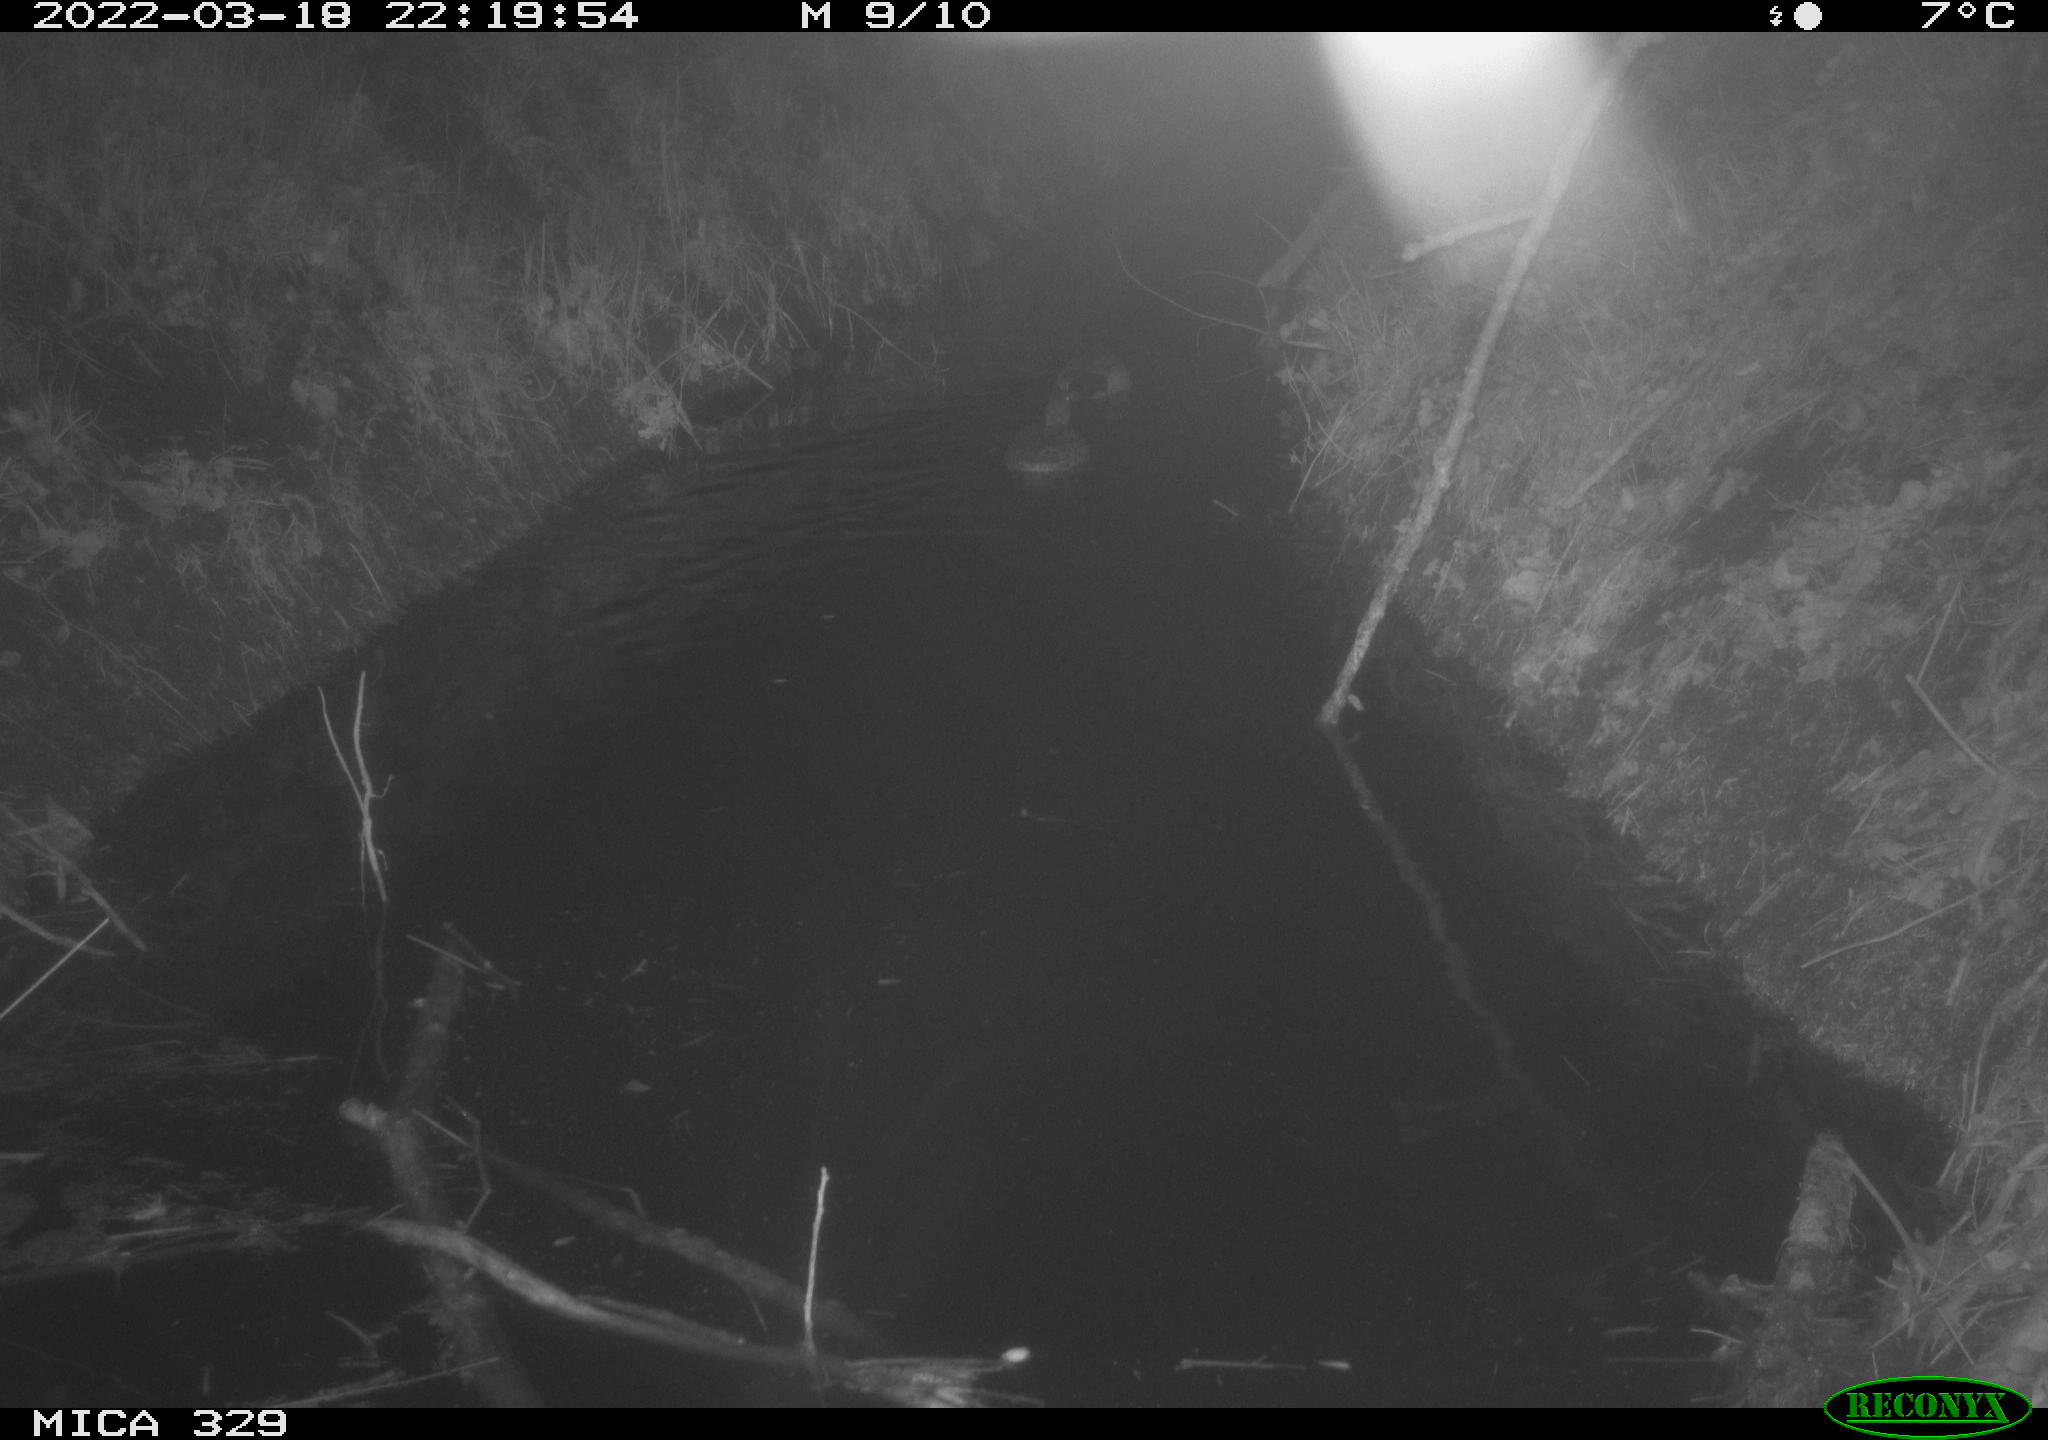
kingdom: Animalia
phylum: Chordata
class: Aves
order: Anseriformes
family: Anatidae
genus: Anas
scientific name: Anas platyrhynchos
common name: Mallard
